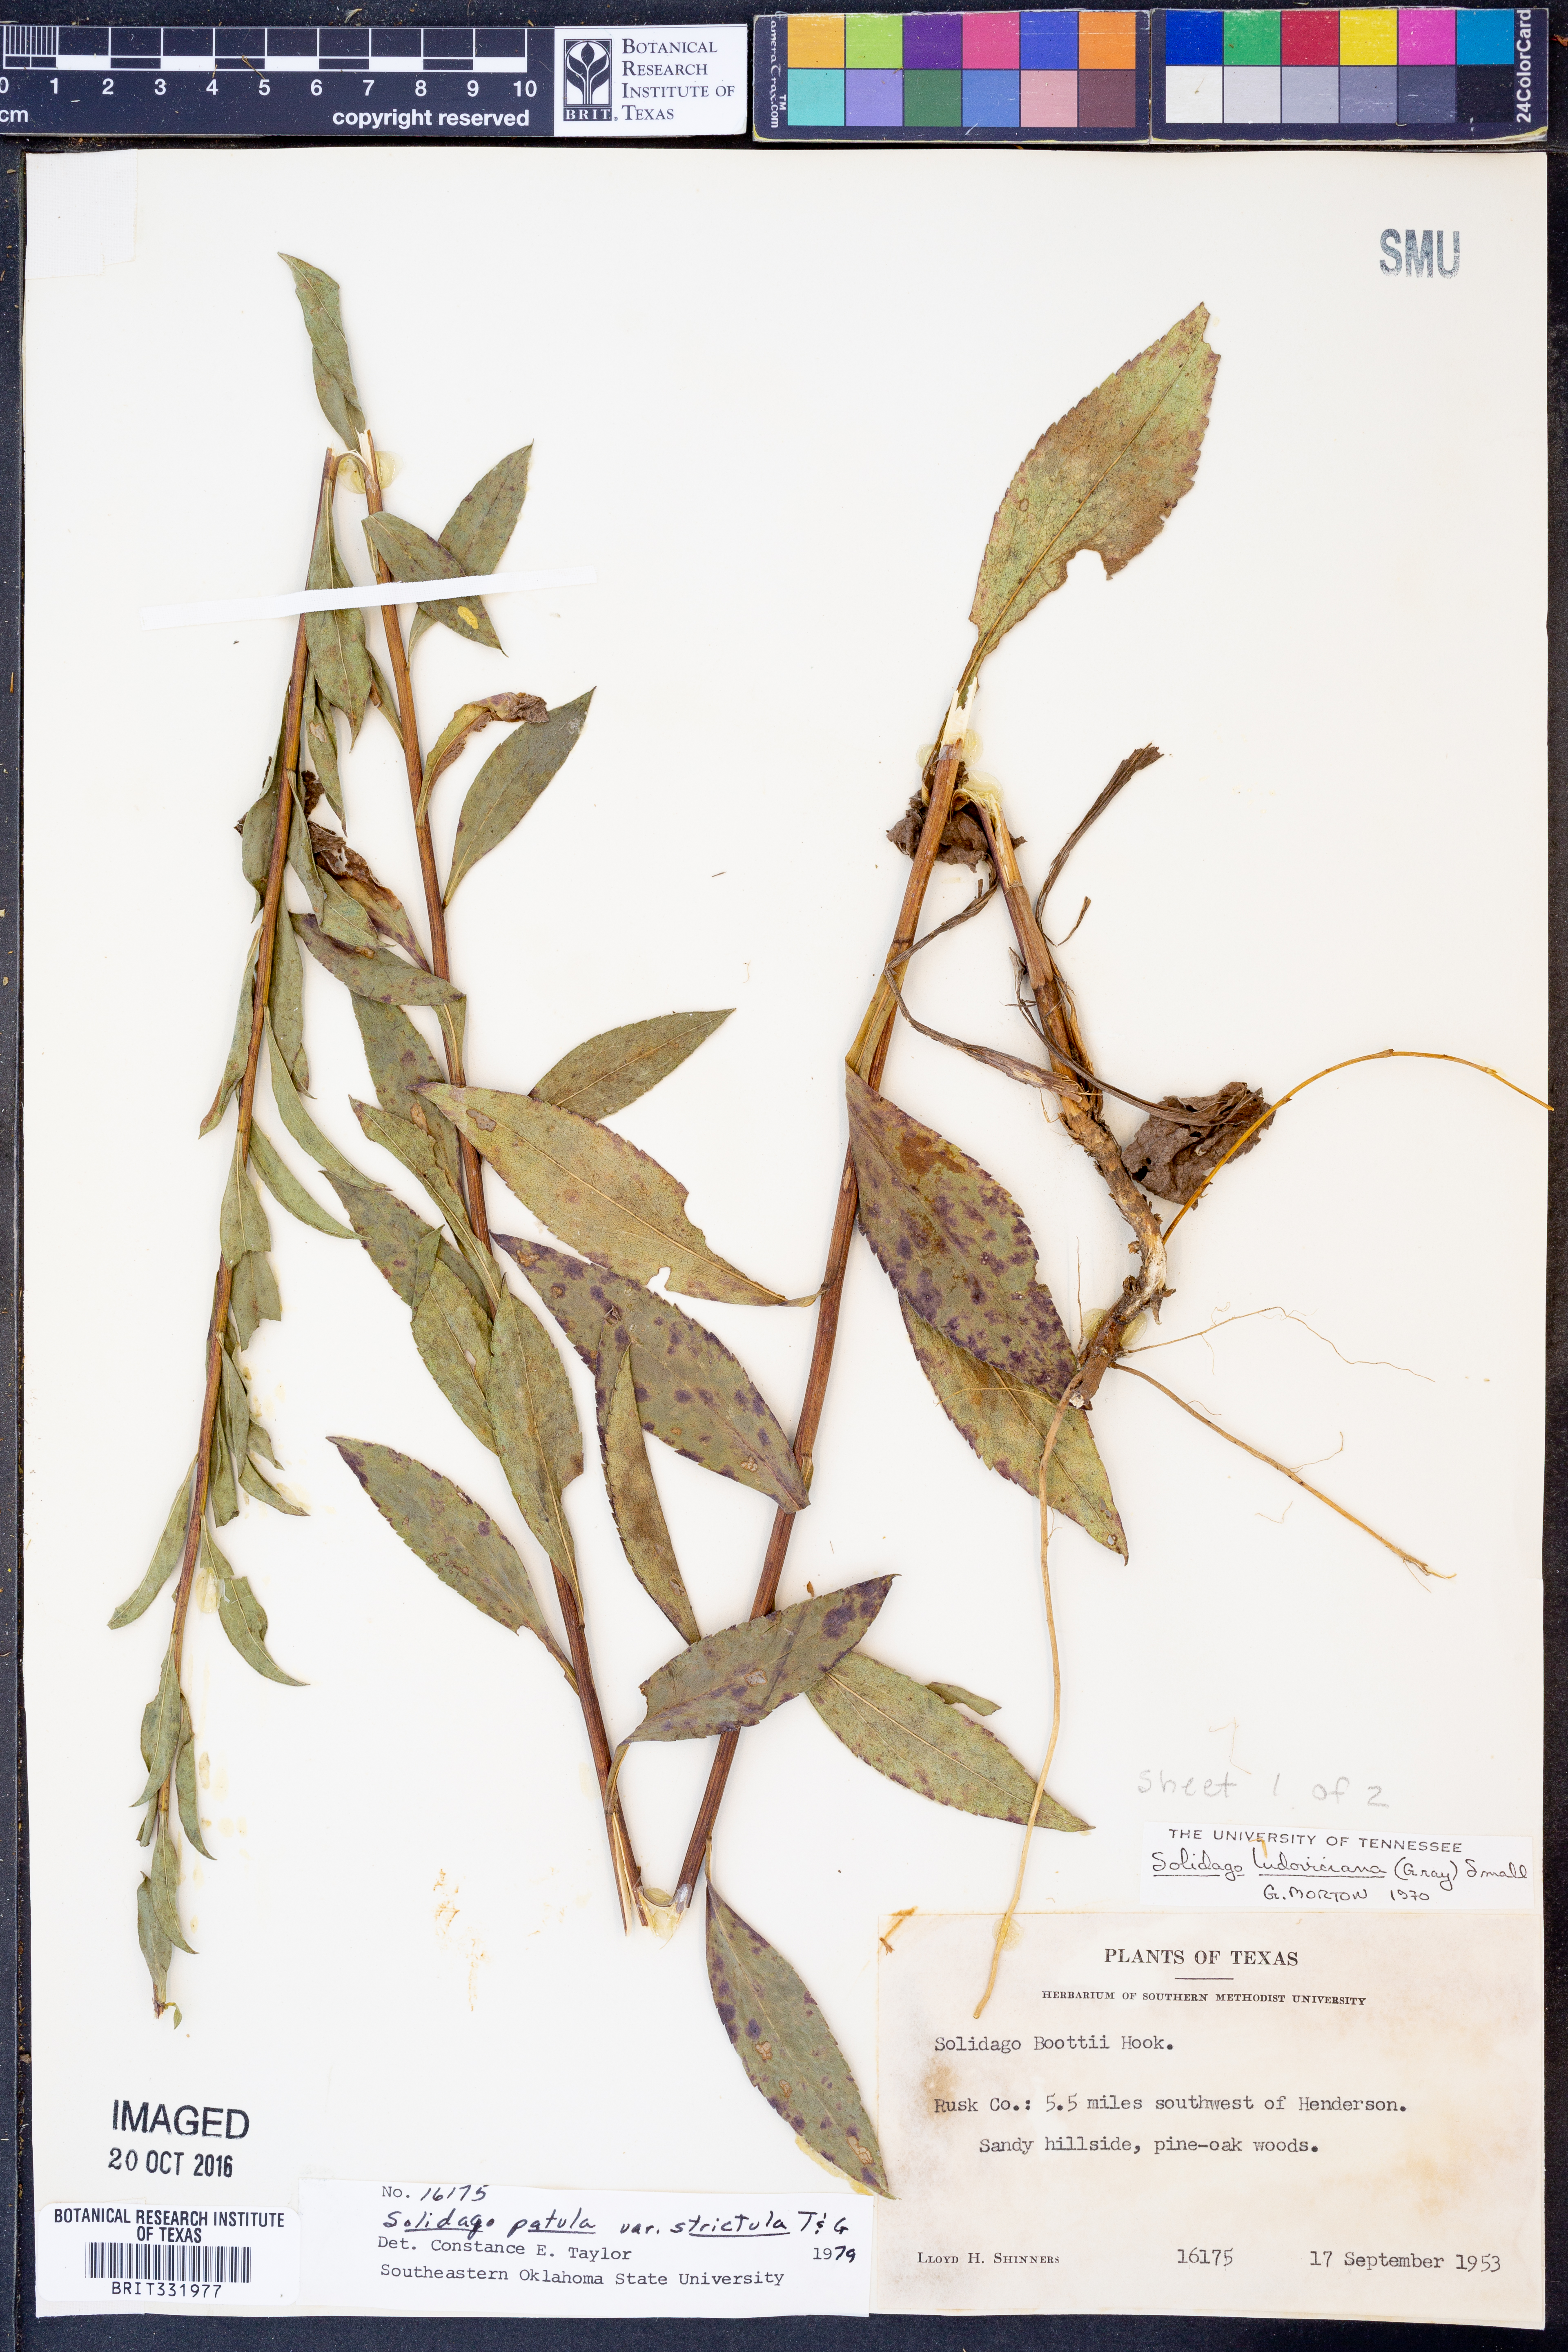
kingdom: Plantae
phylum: Tracheophyta
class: Magnoliopsida
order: Asterales
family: Asteraceae
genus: Solidago
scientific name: Solidago salicina
